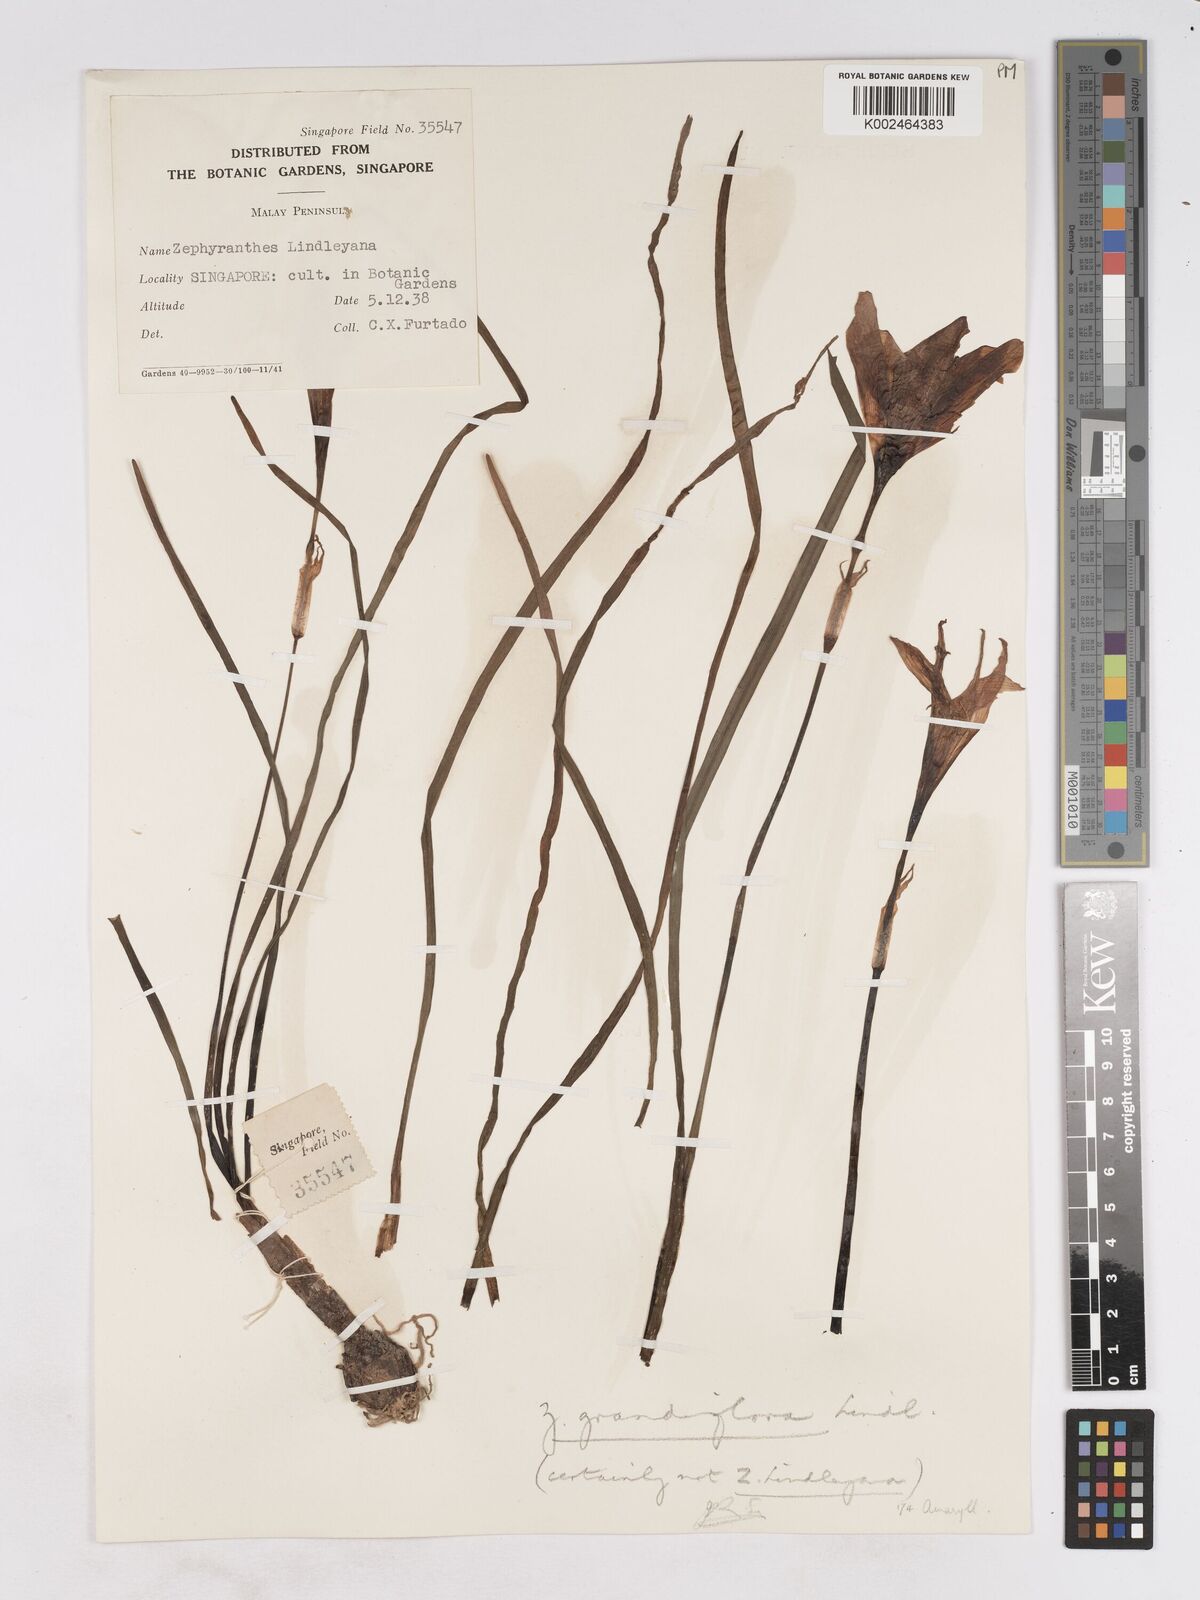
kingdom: Plantae
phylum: Tracheophyta
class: Liliopsida
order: Asparagales
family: Amaryllidaceae
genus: Zephyranthes
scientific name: Zephyranthes minuta
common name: Pink rain lily
